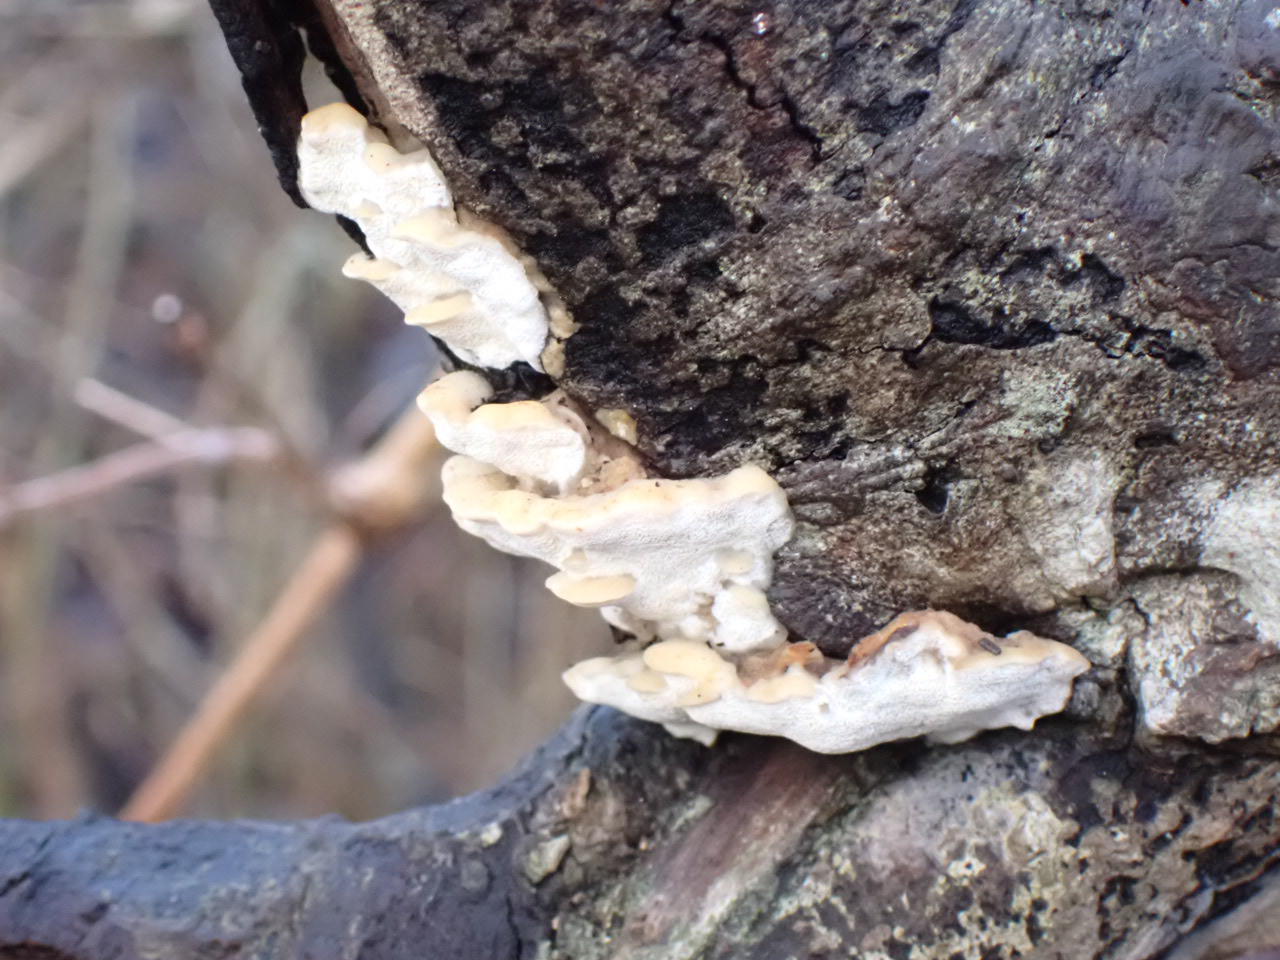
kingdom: Fungi
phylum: Basidiomycota
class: Agaricomycetes
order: Hymenochaetales
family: Oxyporaceae
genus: Oxyporus
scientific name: Oxyporus populinus
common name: sammenvokset trylleporesvamp
